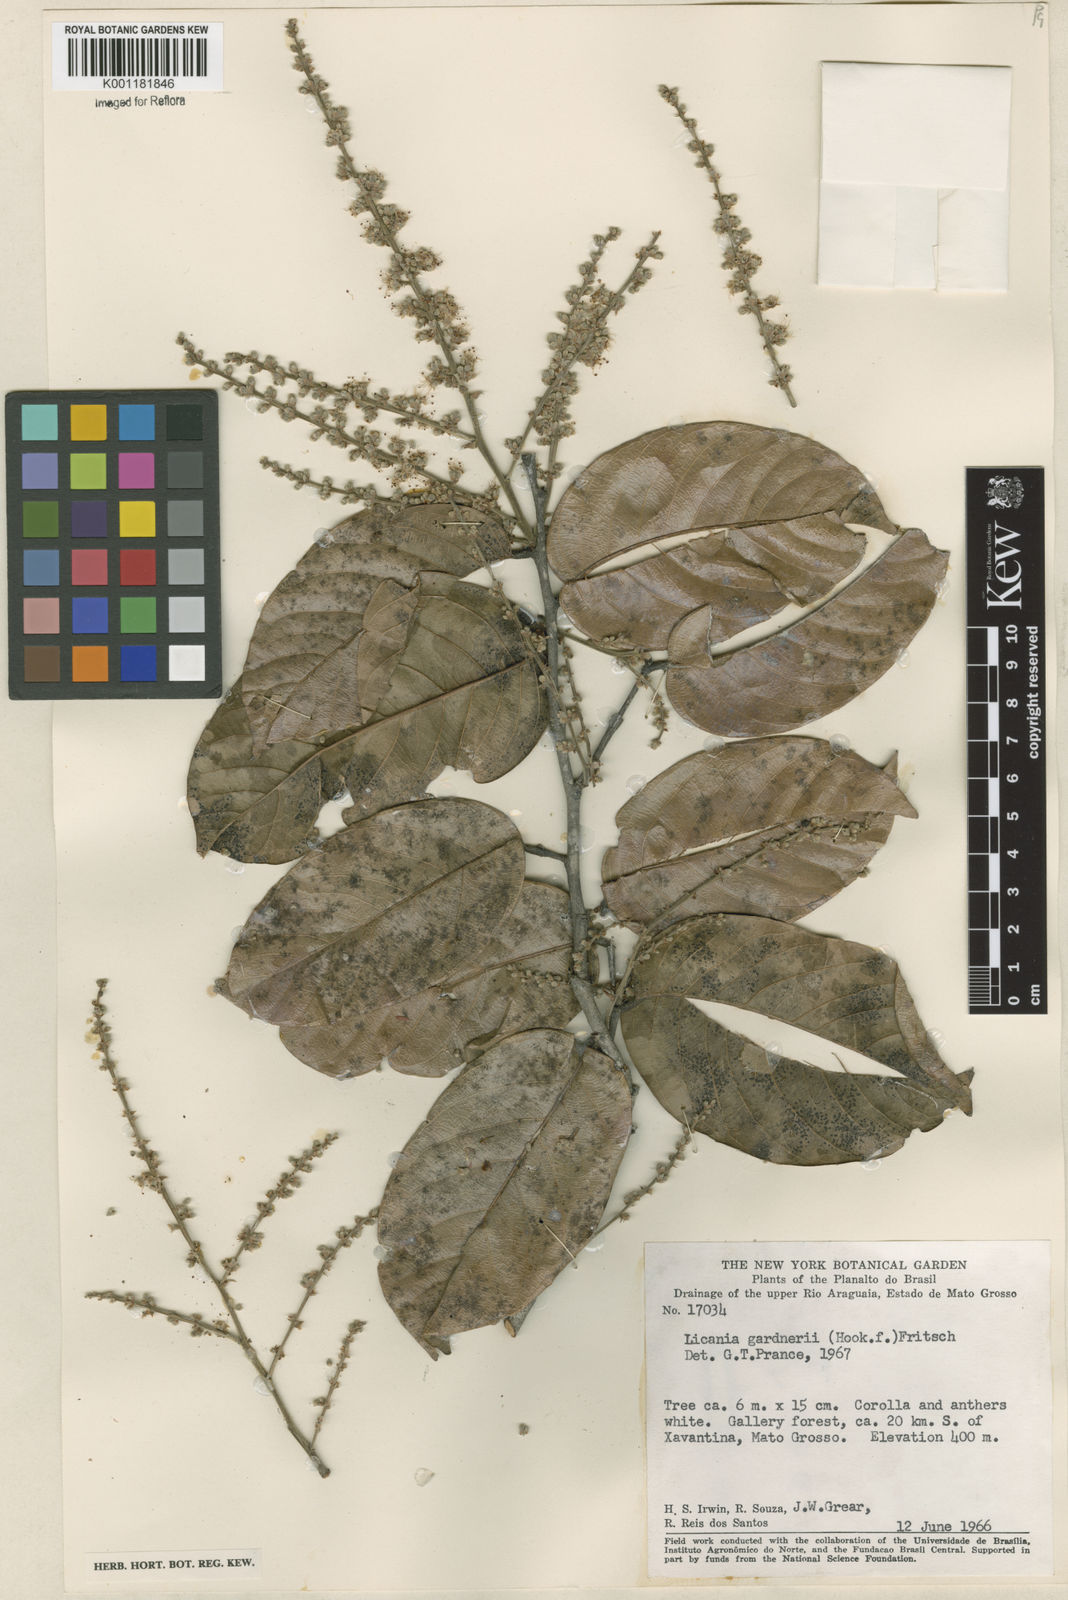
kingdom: Plantae
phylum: Tracheophyta
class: Magnoliopsida
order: Malpighiales
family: Chrysobalanaceae
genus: Leptobalanus
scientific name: Leptobalanus gardneri
